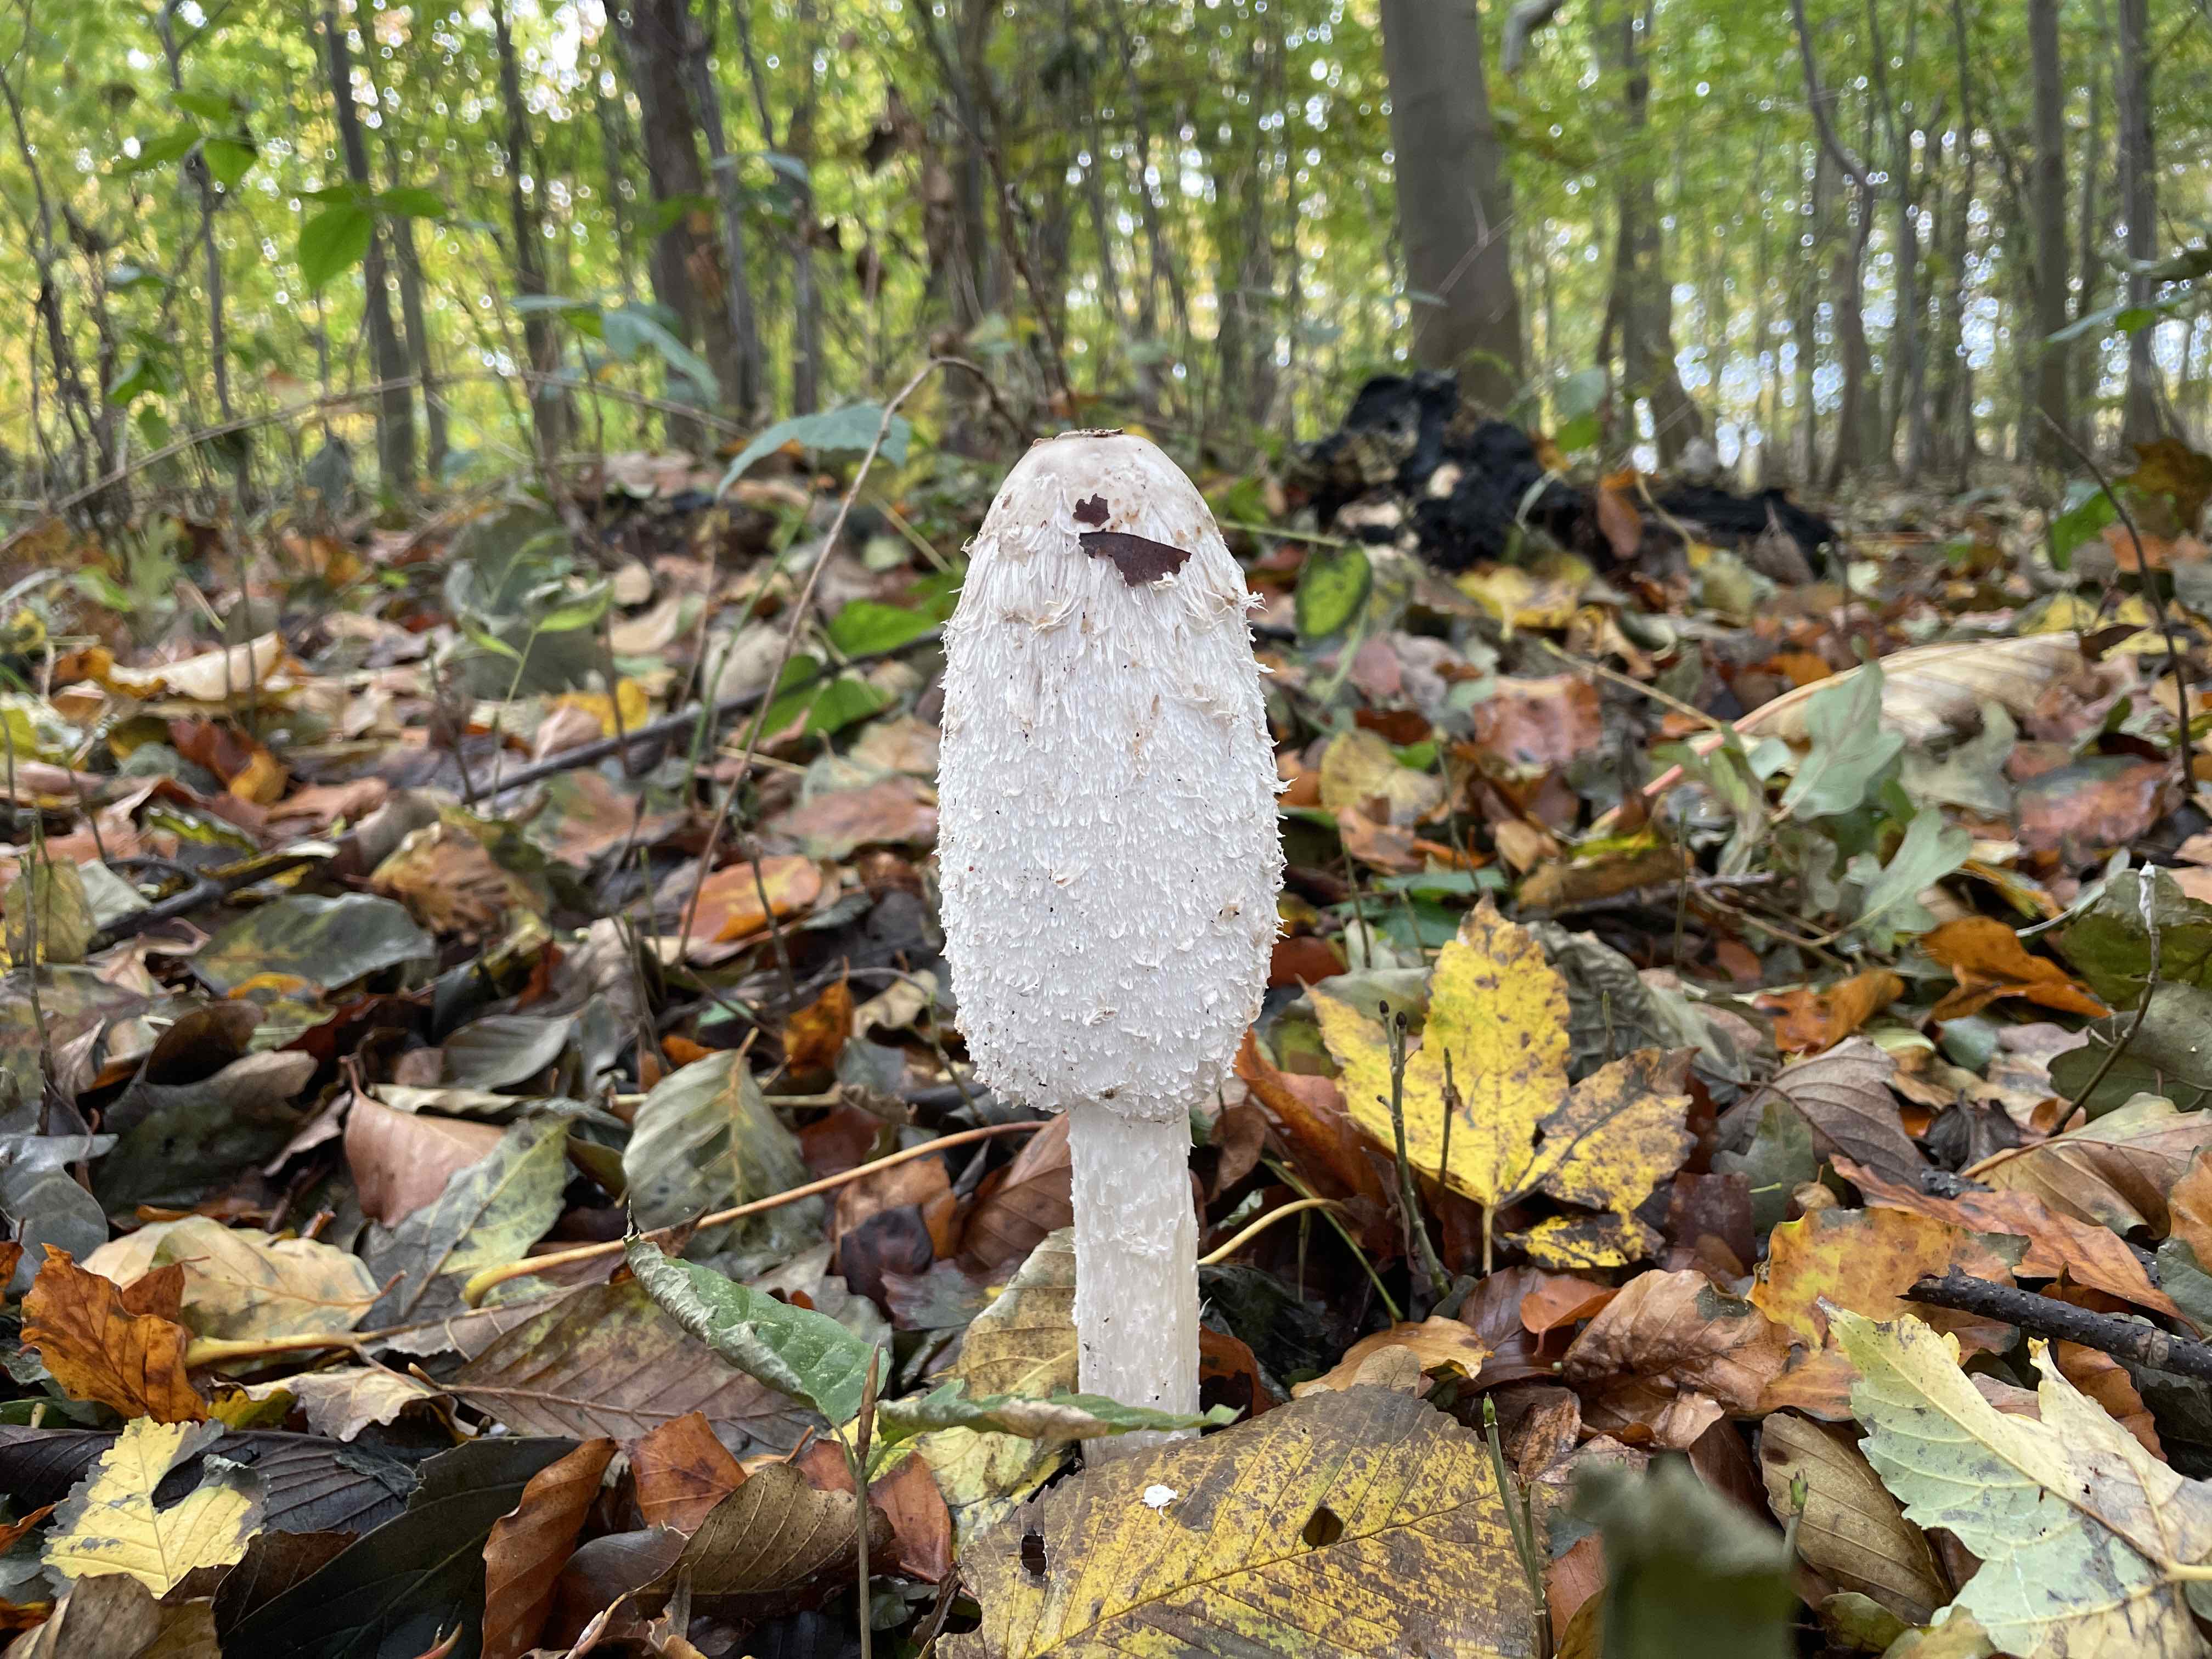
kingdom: Fungi
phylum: Basidiomycota
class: Agaricomycetes
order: Agaricales
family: Agaricaceae
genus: Coprinus
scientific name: Coprinus comatus
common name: stor parykhat
